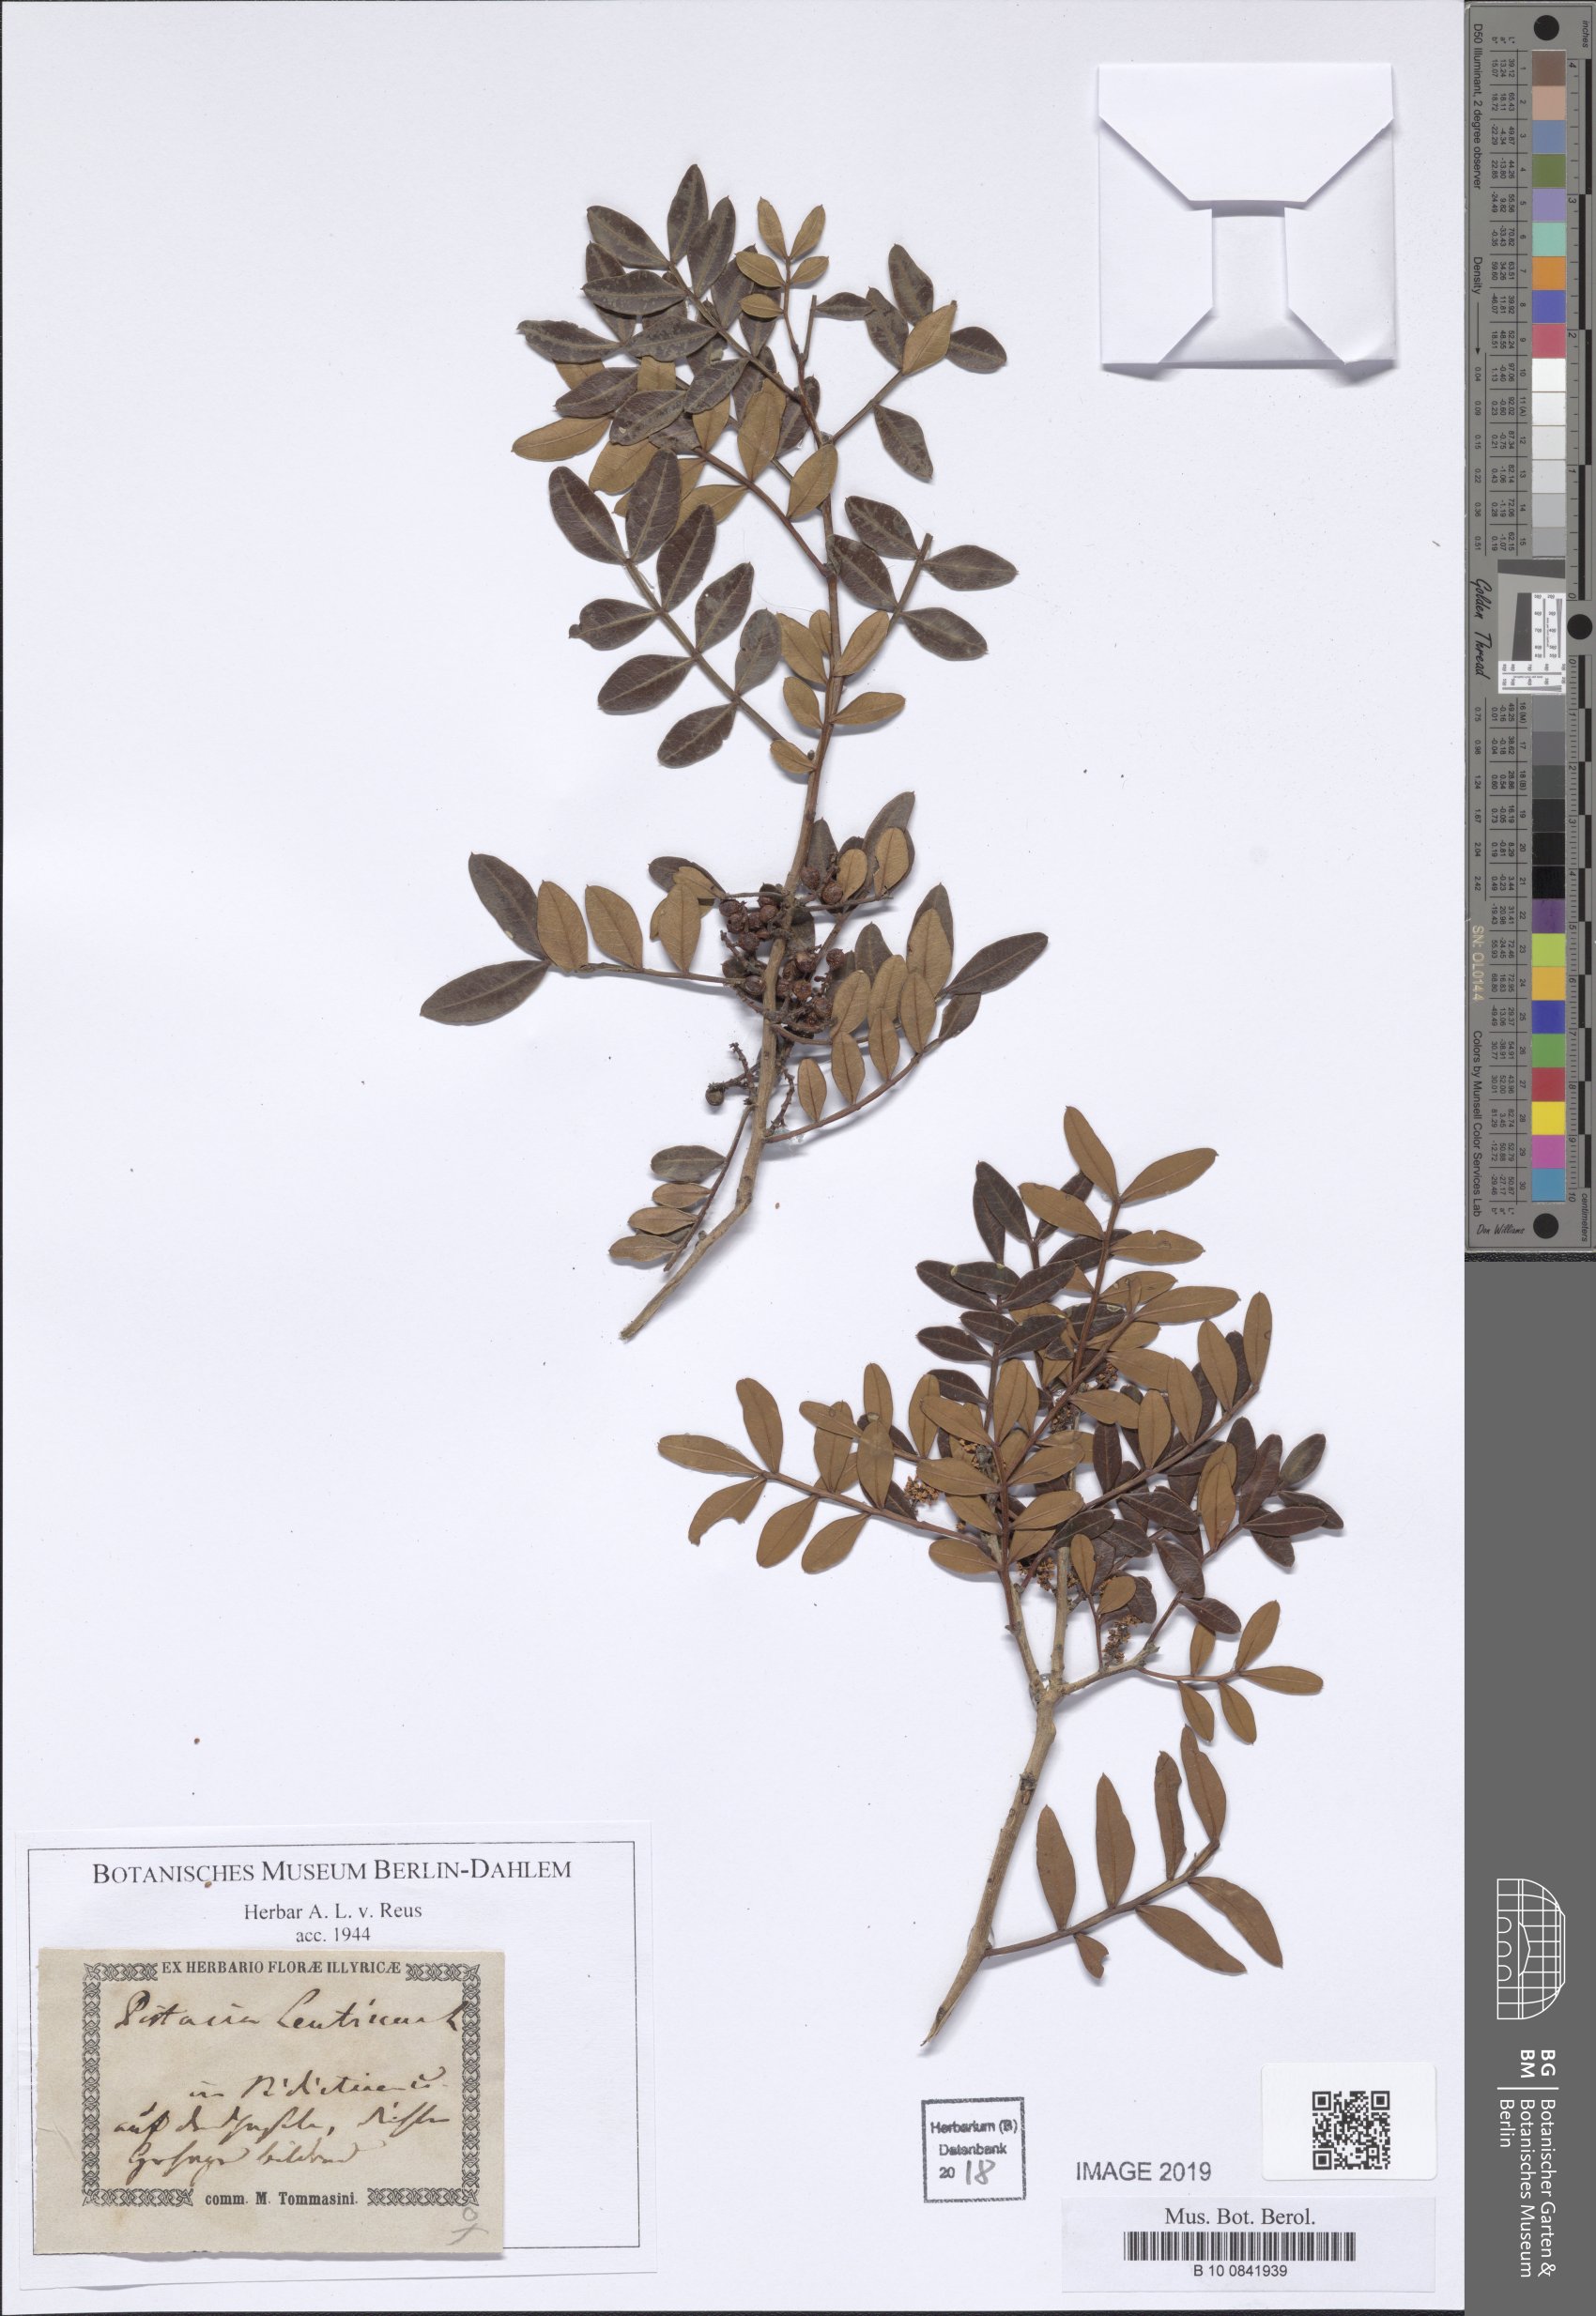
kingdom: Plantae
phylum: Tracheophyta
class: Magnoliopsida
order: Sapindales
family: Anacardiaceae
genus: Pistacia
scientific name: Pistacia lentiscus
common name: Lentisk
